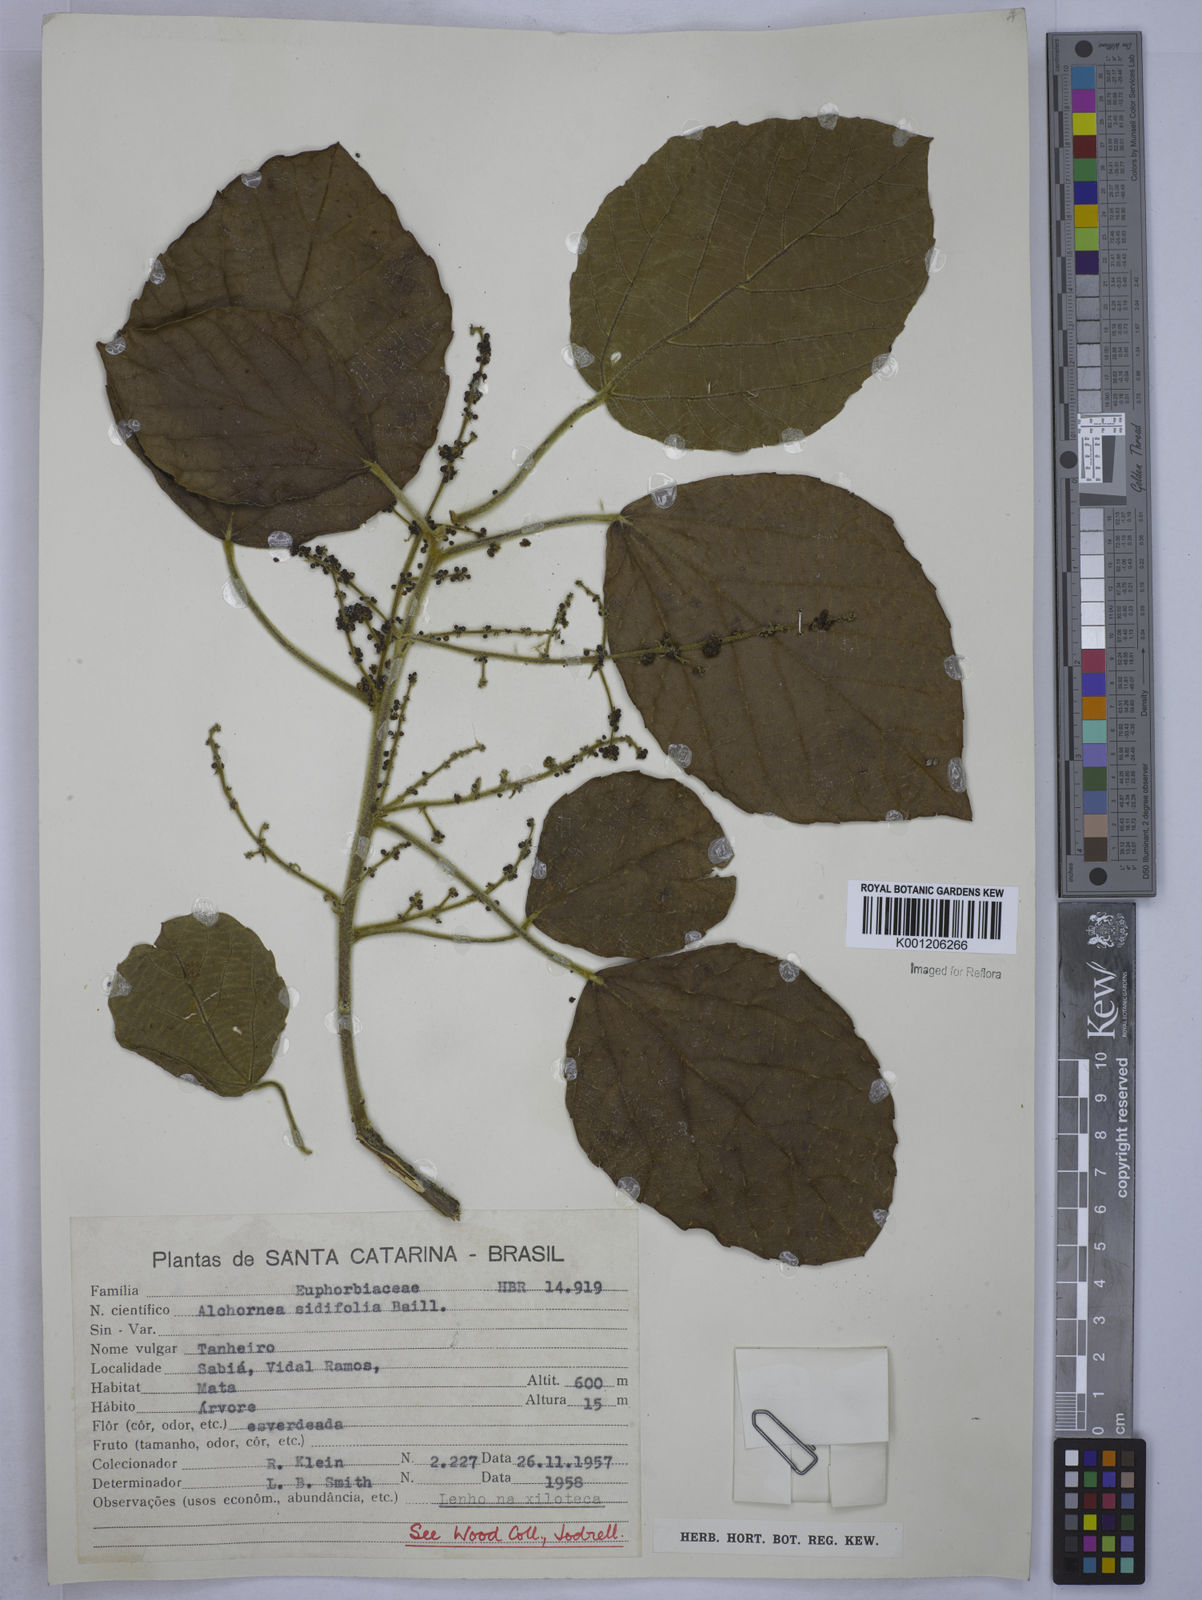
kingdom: Plantae
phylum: Tracheophyta
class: Magnoliopsida
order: Malpighiales
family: Euphorbiaceae
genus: Alchornea
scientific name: Alchornea
